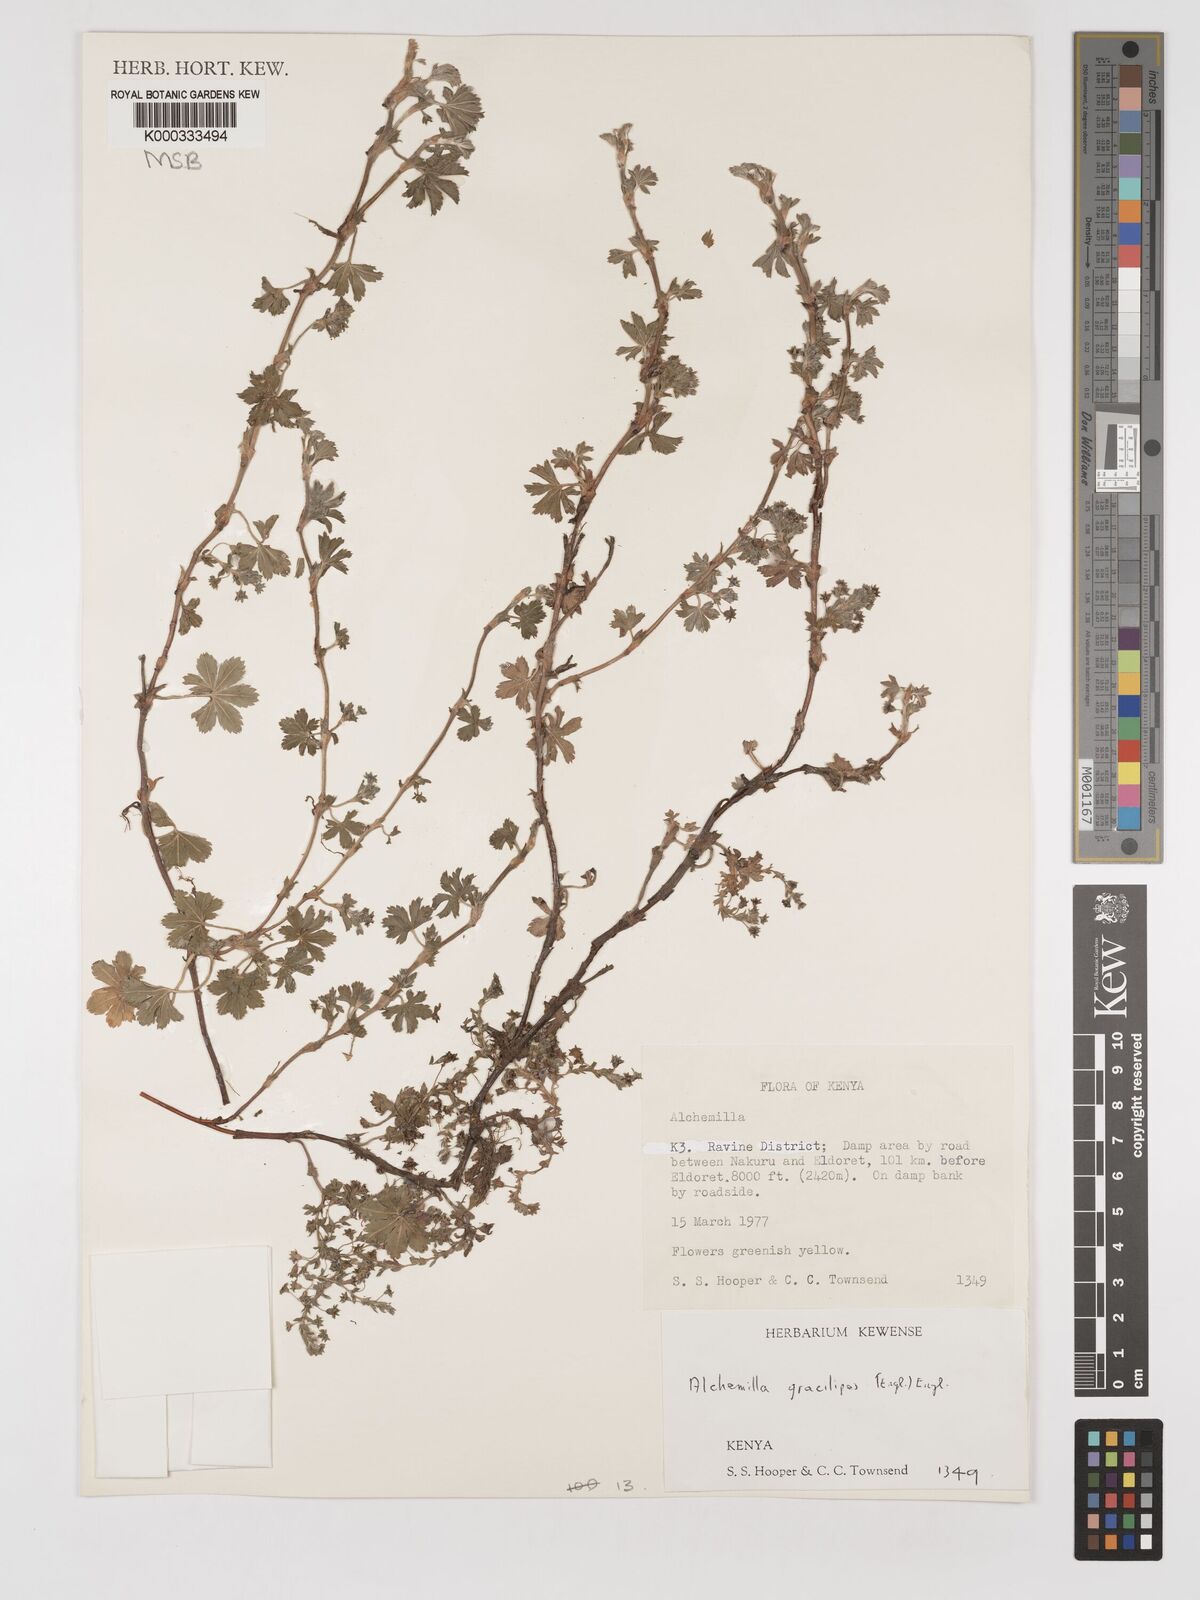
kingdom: Plantae
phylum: Tracheophyta
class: Magnoliopsida
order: Rosales
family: Rosaceae
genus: Alchemilla
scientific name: Alchemilla pedata
